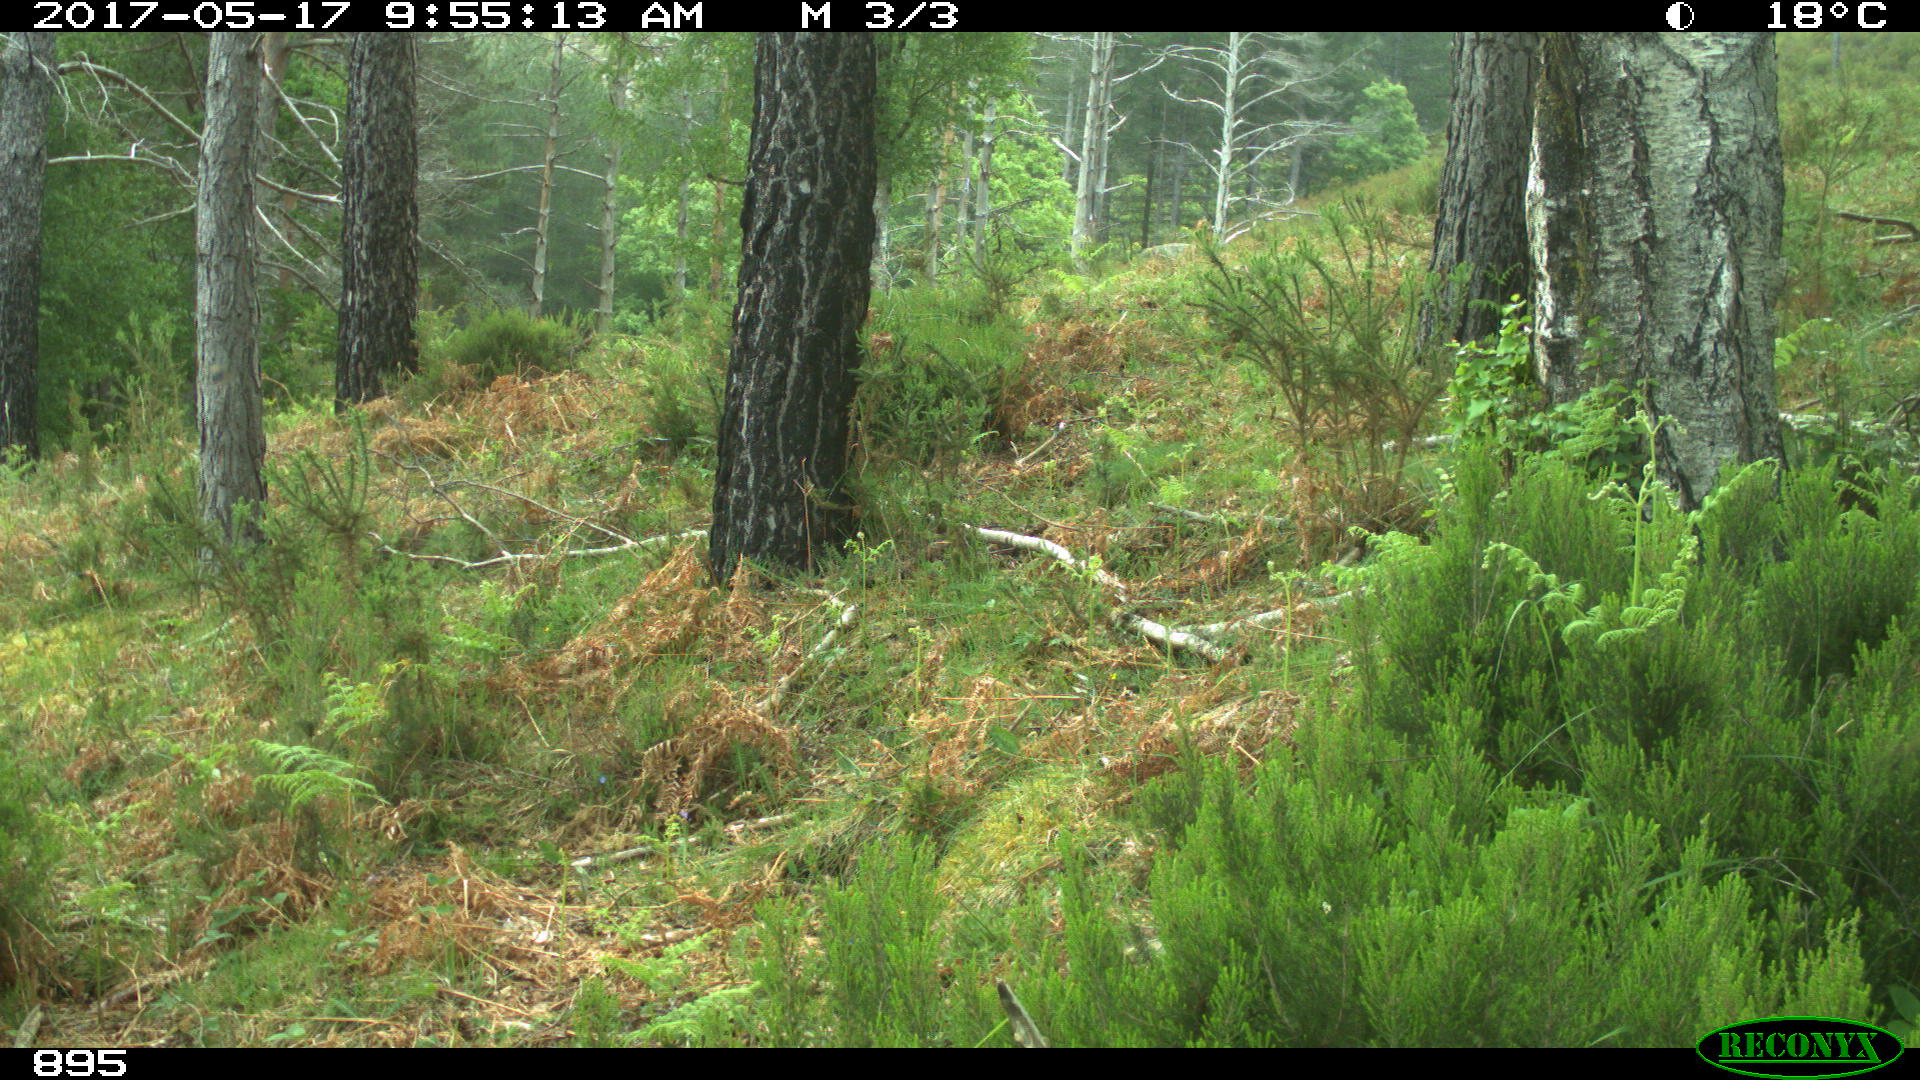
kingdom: Animalia
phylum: Chordata
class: Mammalia
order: Perissodactyla
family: Equidae
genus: Equus
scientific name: Equus caballus
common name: Horse
